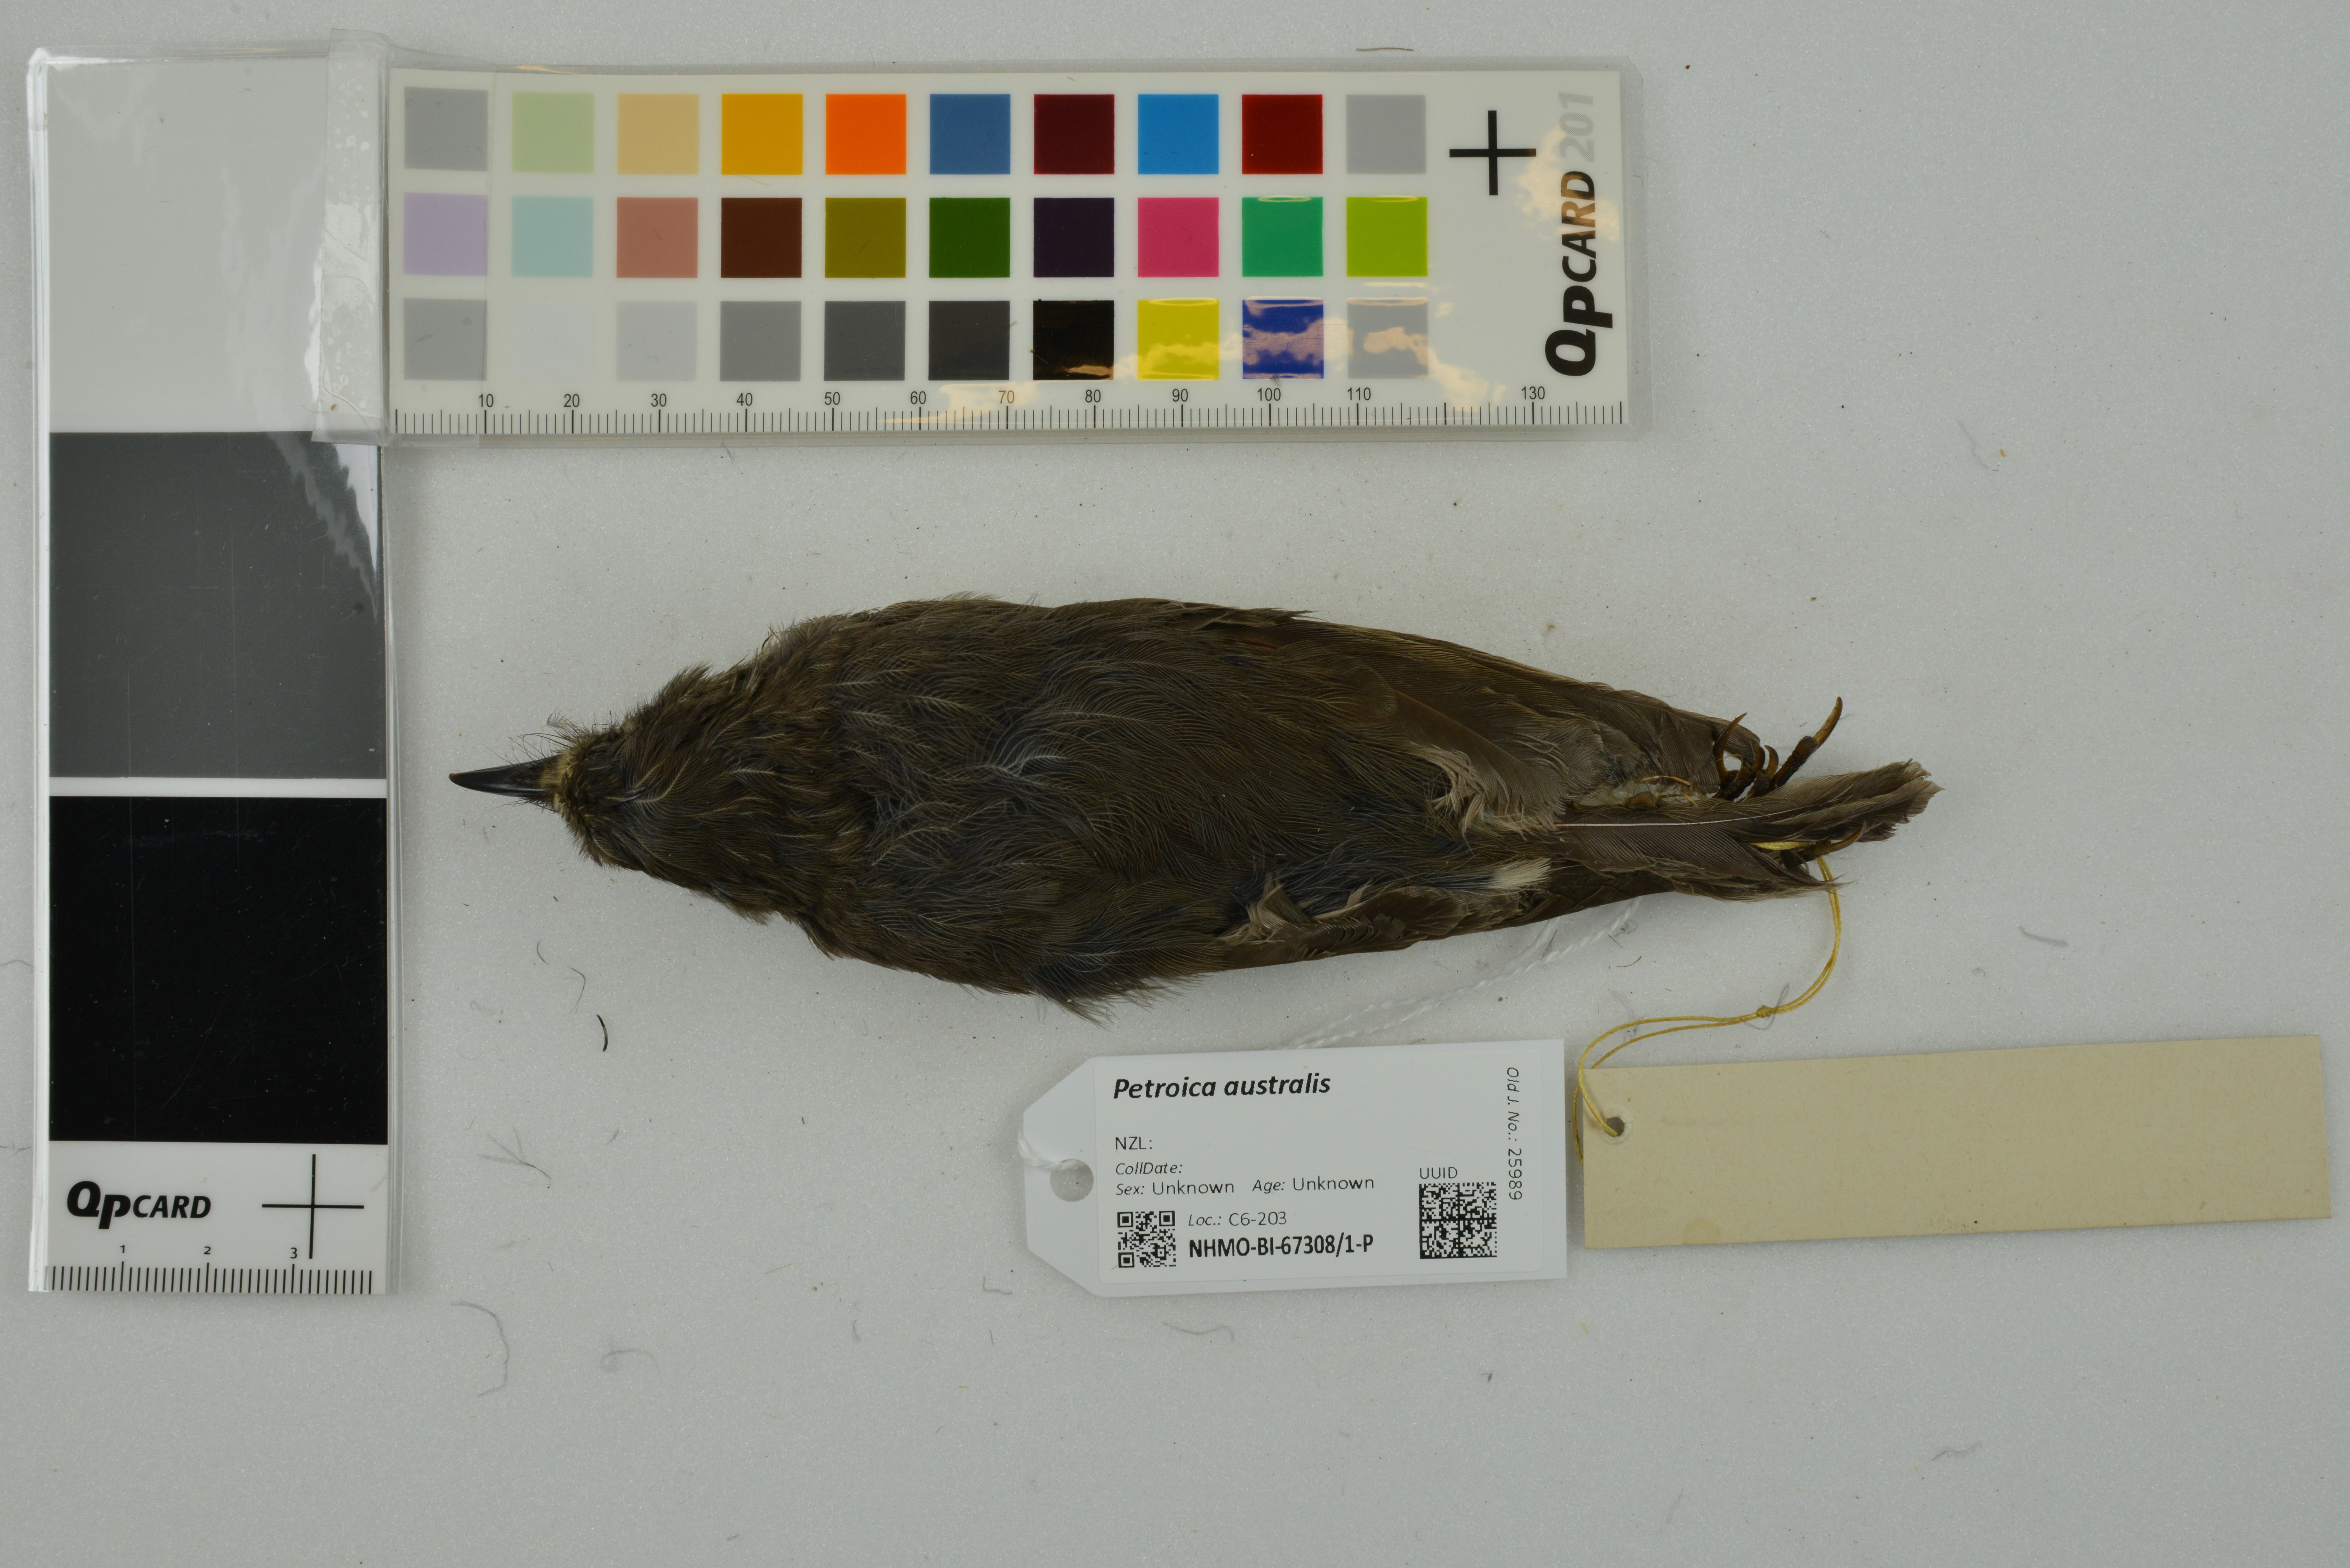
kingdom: Animalia
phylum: Chordata
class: Aves
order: Passeriformes
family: Petroicidae
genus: Petroica
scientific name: Petroica australis
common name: New zealand robin
